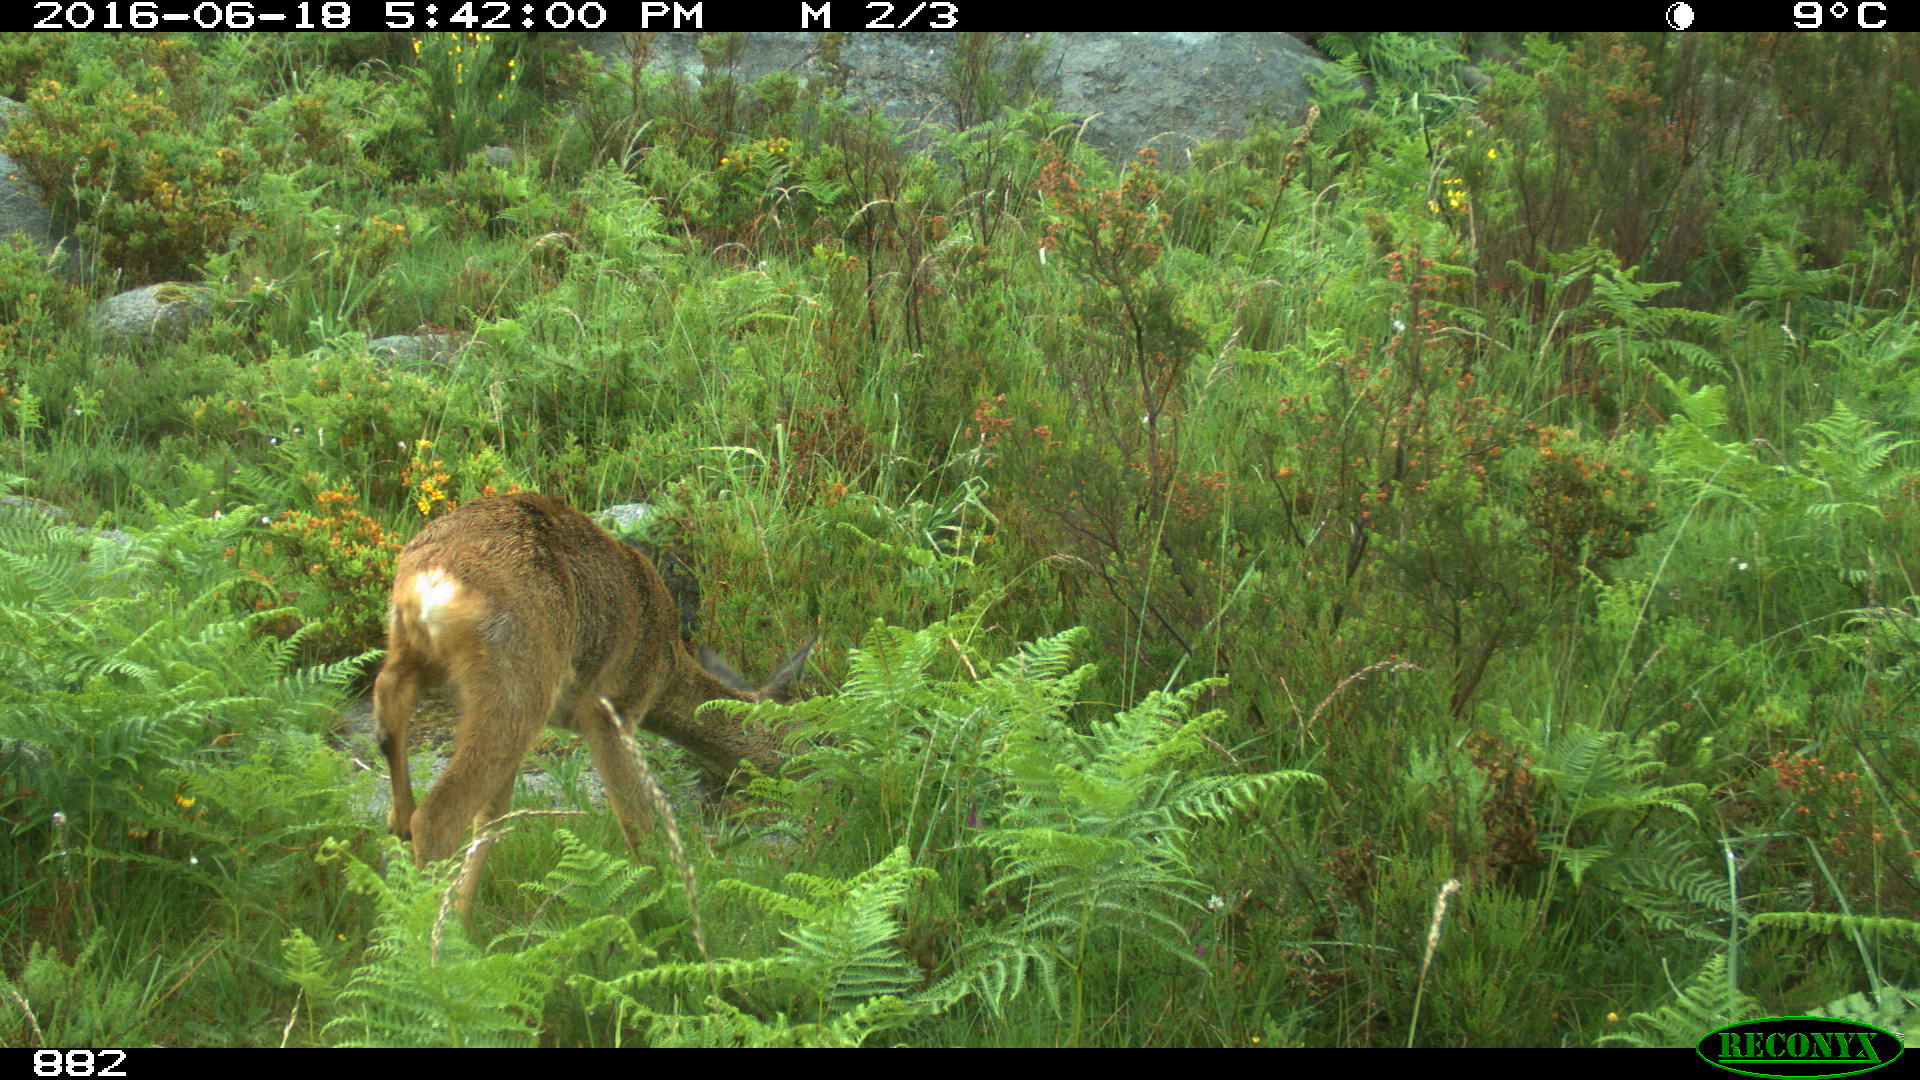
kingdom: Animalia
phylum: Chordata
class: Mammalia
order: Artiodactyla
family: Cervidae
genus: Capreolus
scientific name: Capreolus capreolus
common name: Western roe deer
